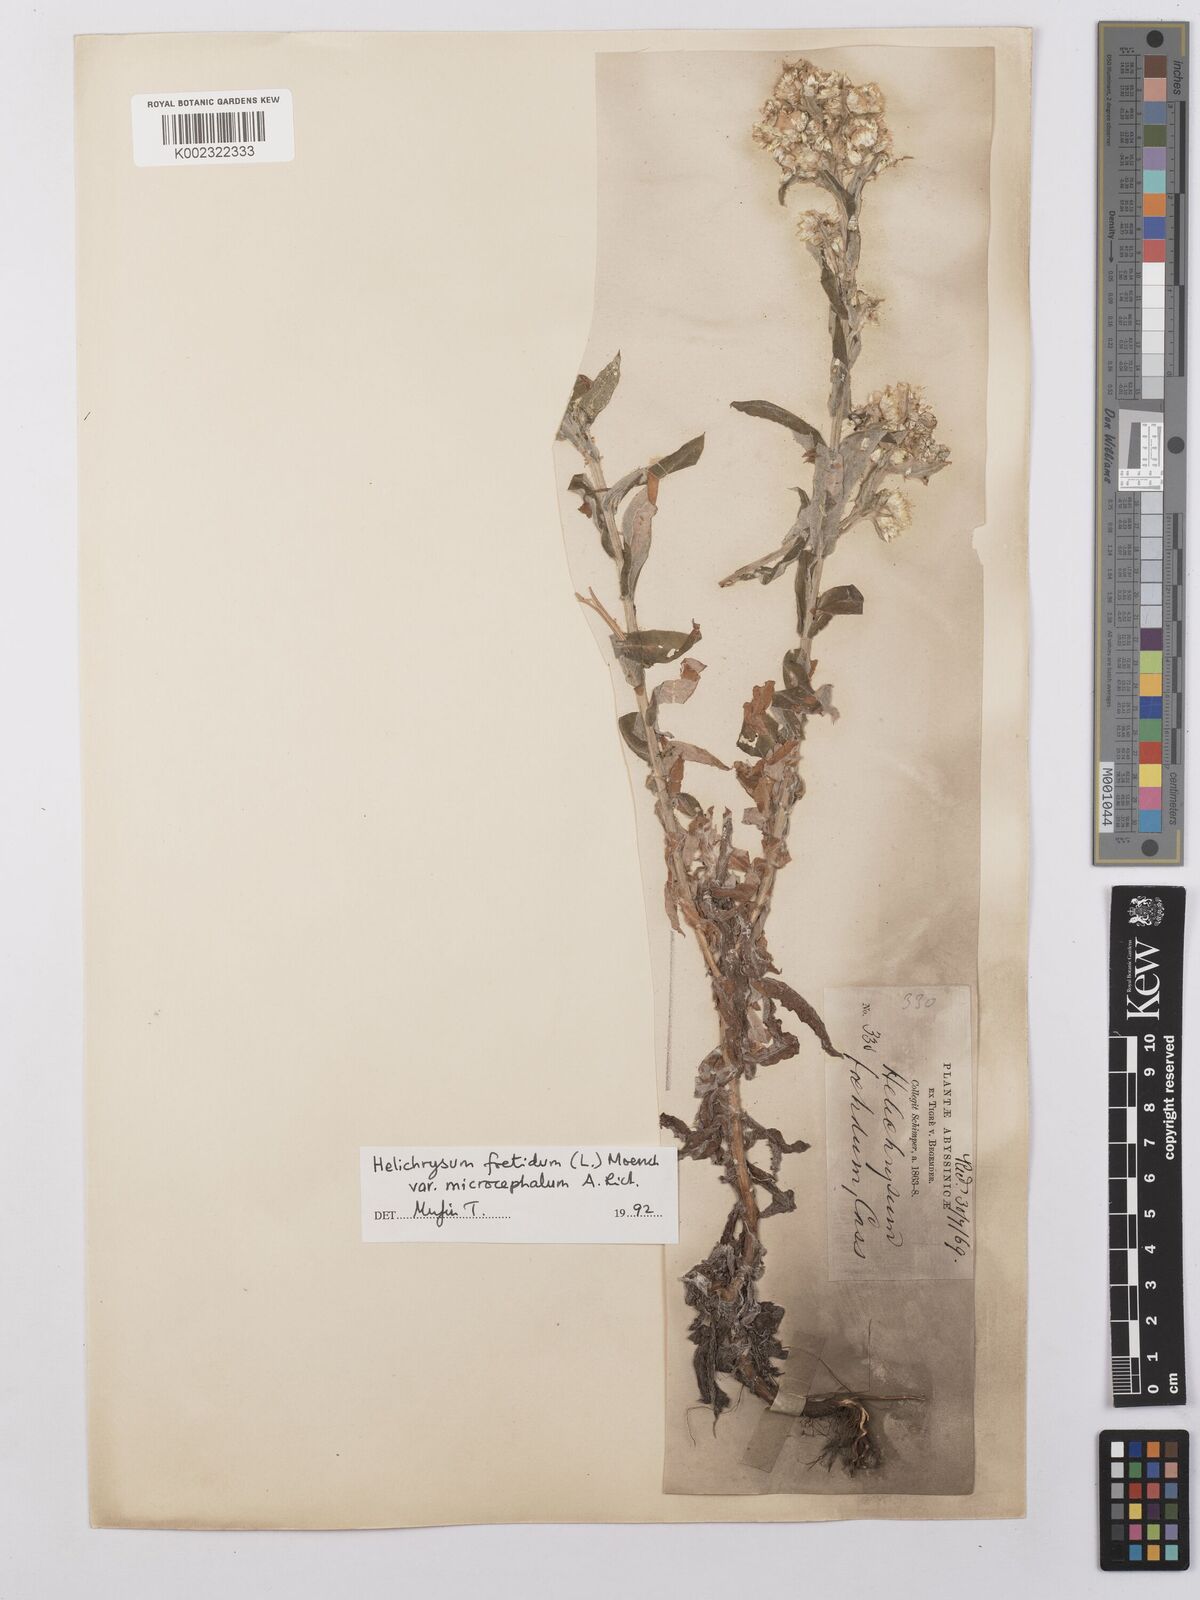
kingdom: Plantae
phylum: Tracheophyta
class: Magnoliopsida
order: Asterales
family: Asteraceae
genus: Helichrysum
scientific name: Helichrysum foetidum
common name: Stinking everlasting
